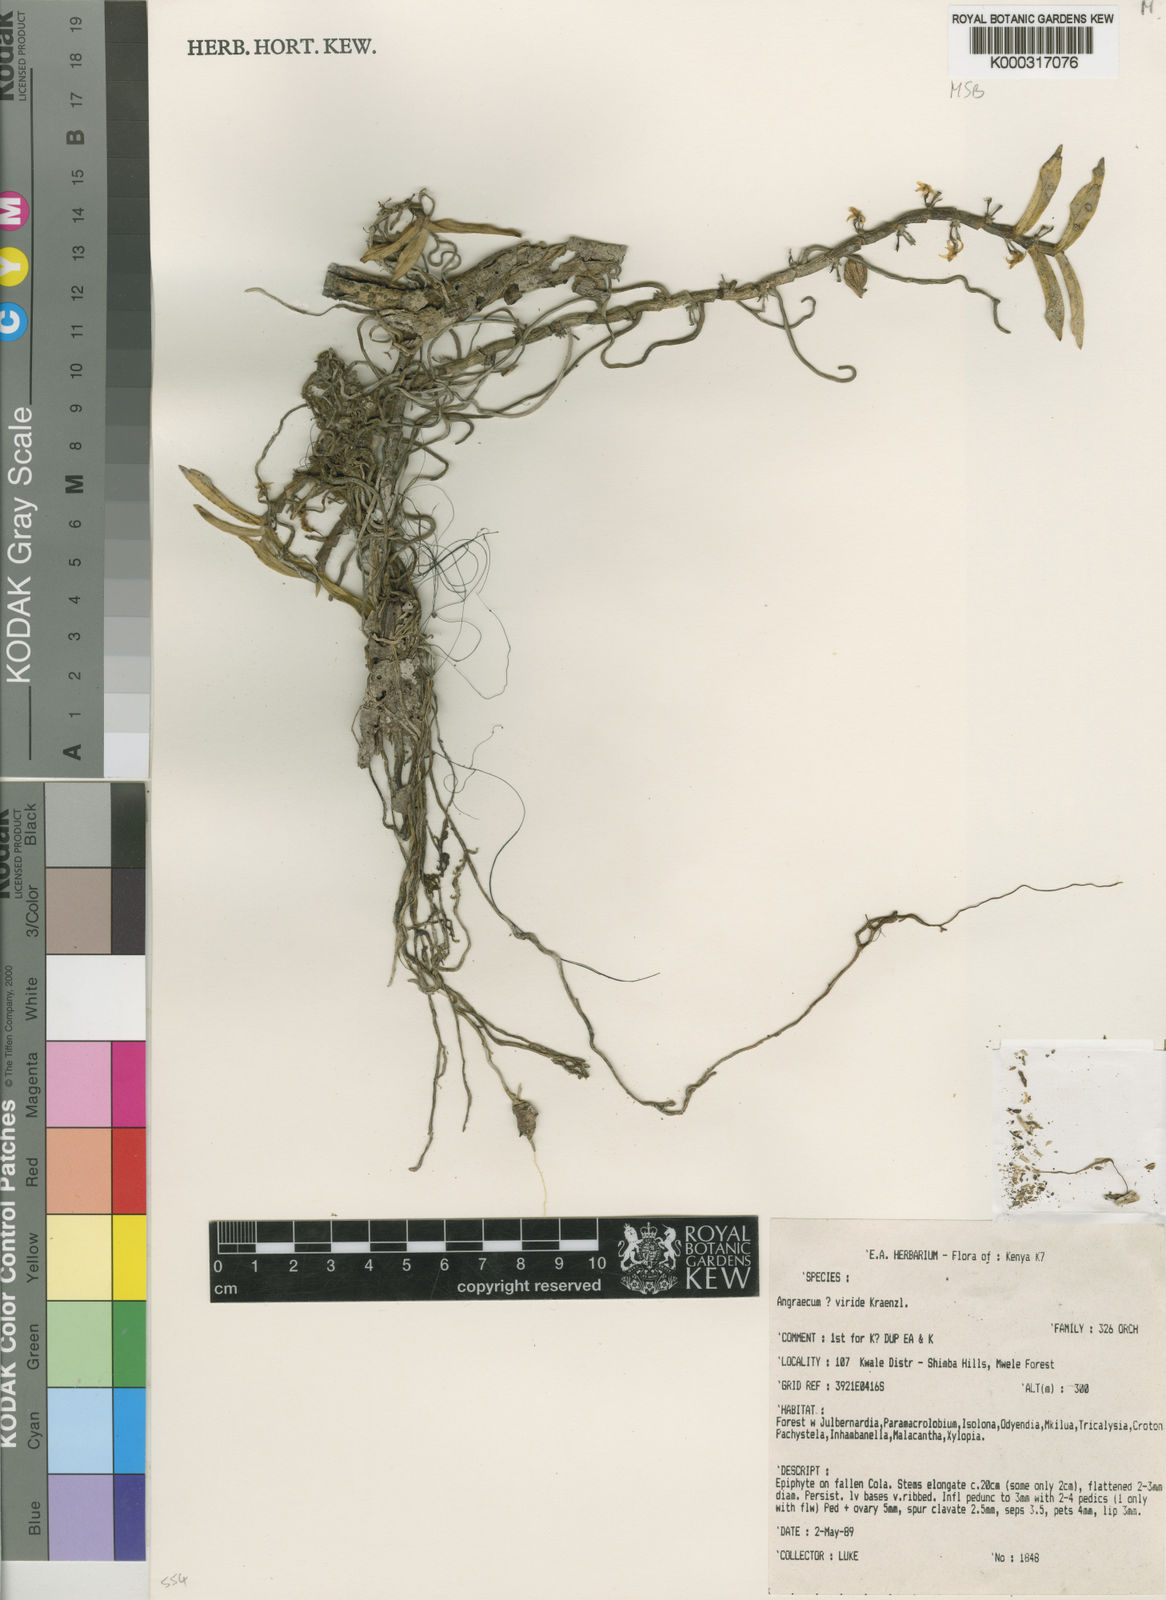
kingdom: Plantae
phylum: Tracheophyta
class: Liliopsida
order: Asparagales
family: Orchidaceae
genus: Angraecum
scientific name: Angraecum rhynchoglossum
